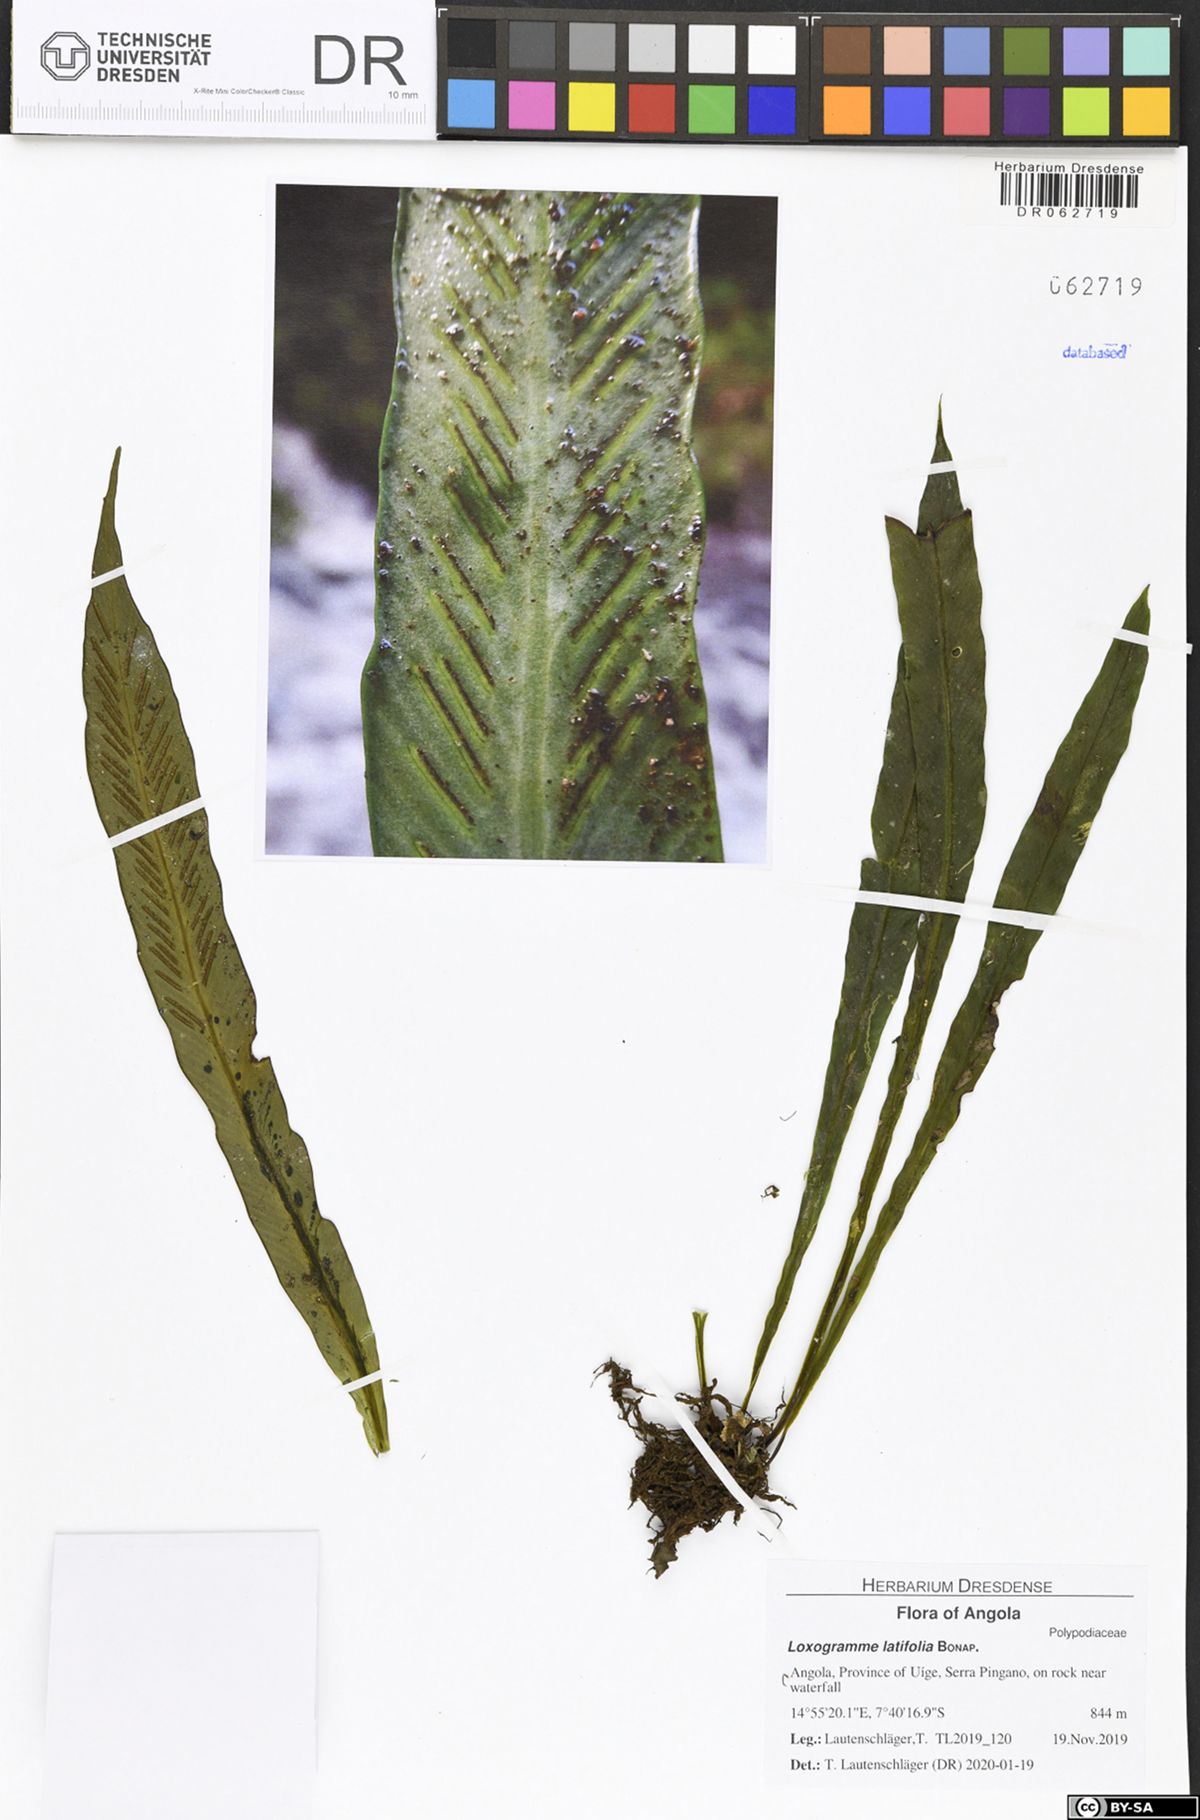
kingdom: Plantae
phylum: Tracheophyta
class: Polypodiopsida
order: Polypodiales
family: Polypodiaceae
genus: Loxogramme
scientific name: Loxogramme latifolia
